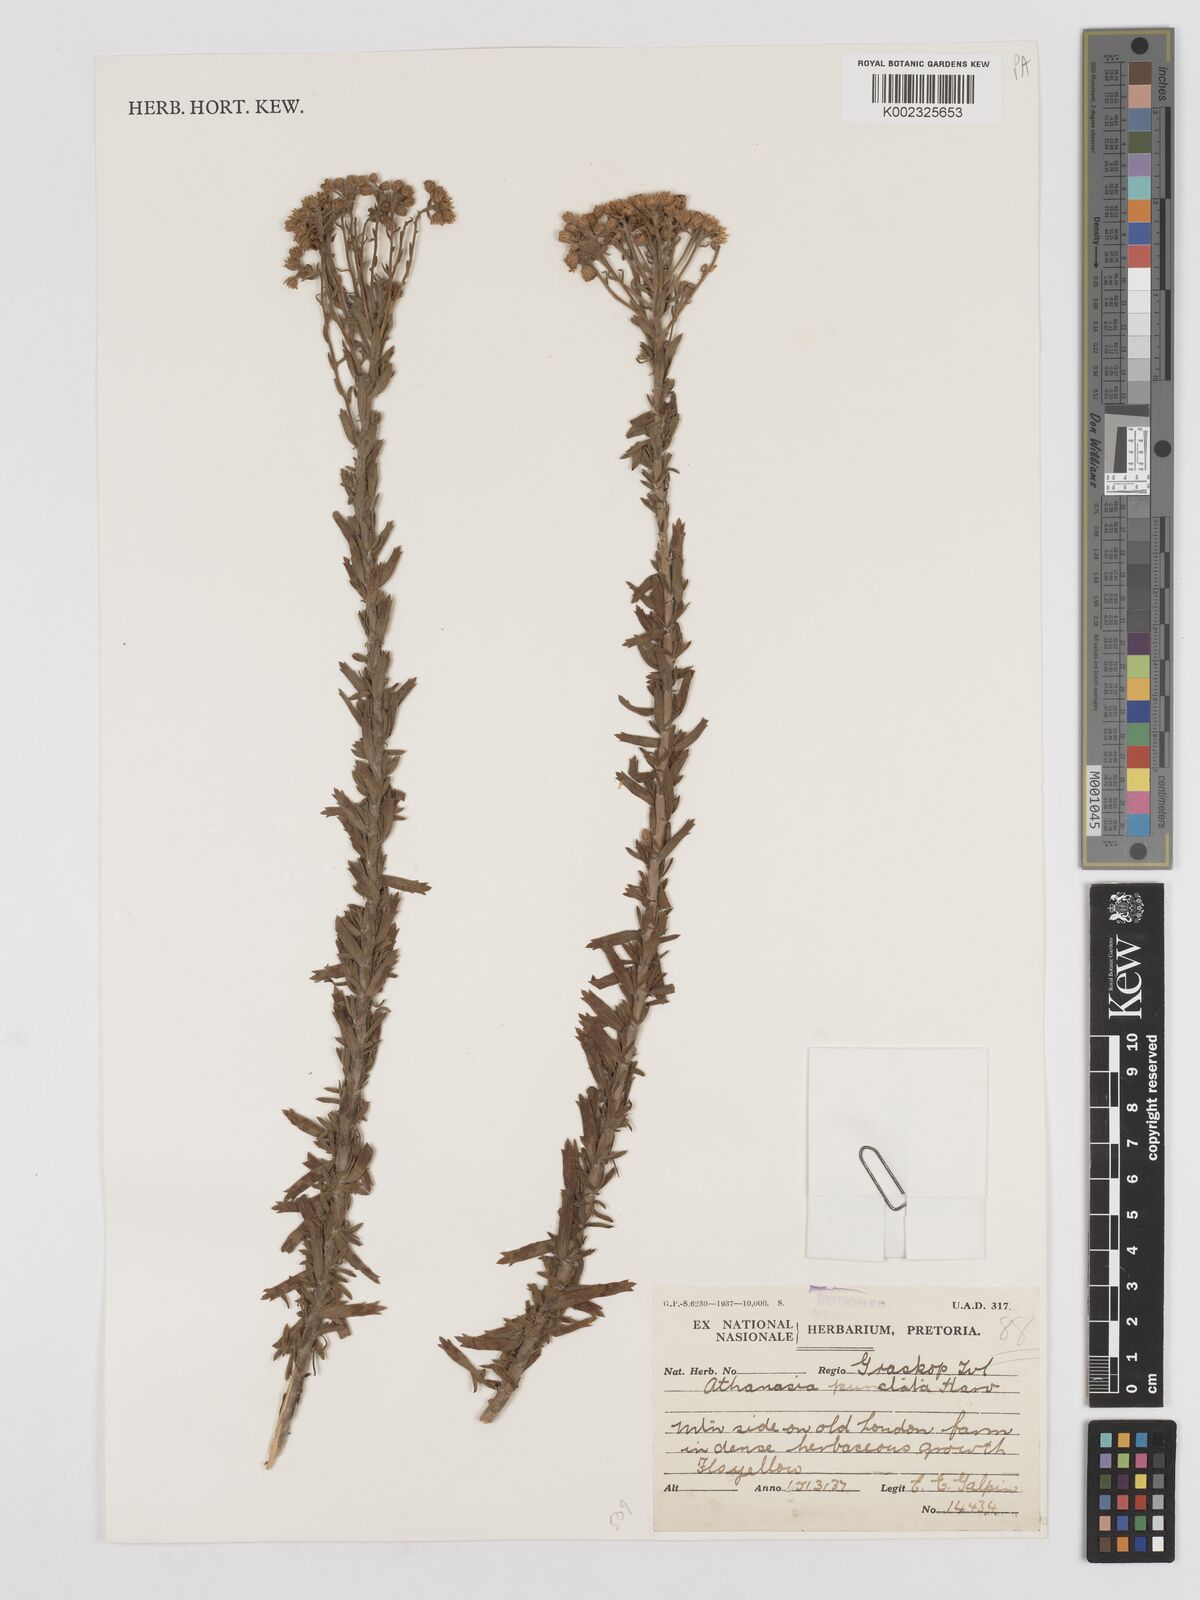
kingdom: Plantae
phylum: Tracheophyta
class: Magnoliopsida
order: Asterales
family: Asteraceae
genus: Inulanthera
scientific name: Inulanthera dregeana
